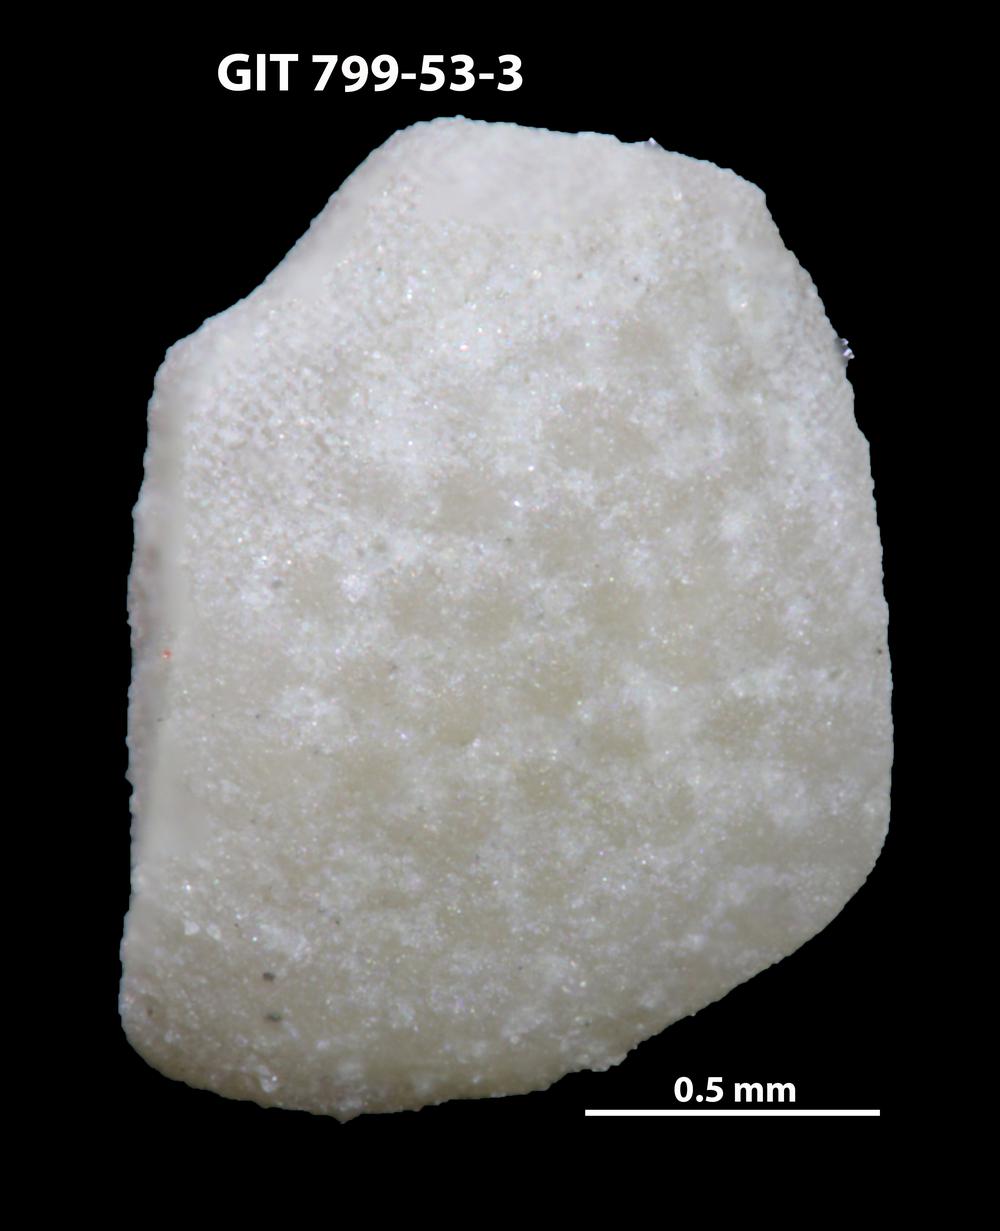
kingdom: Animalia
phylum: Echinodermata
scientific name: Echinodermata
